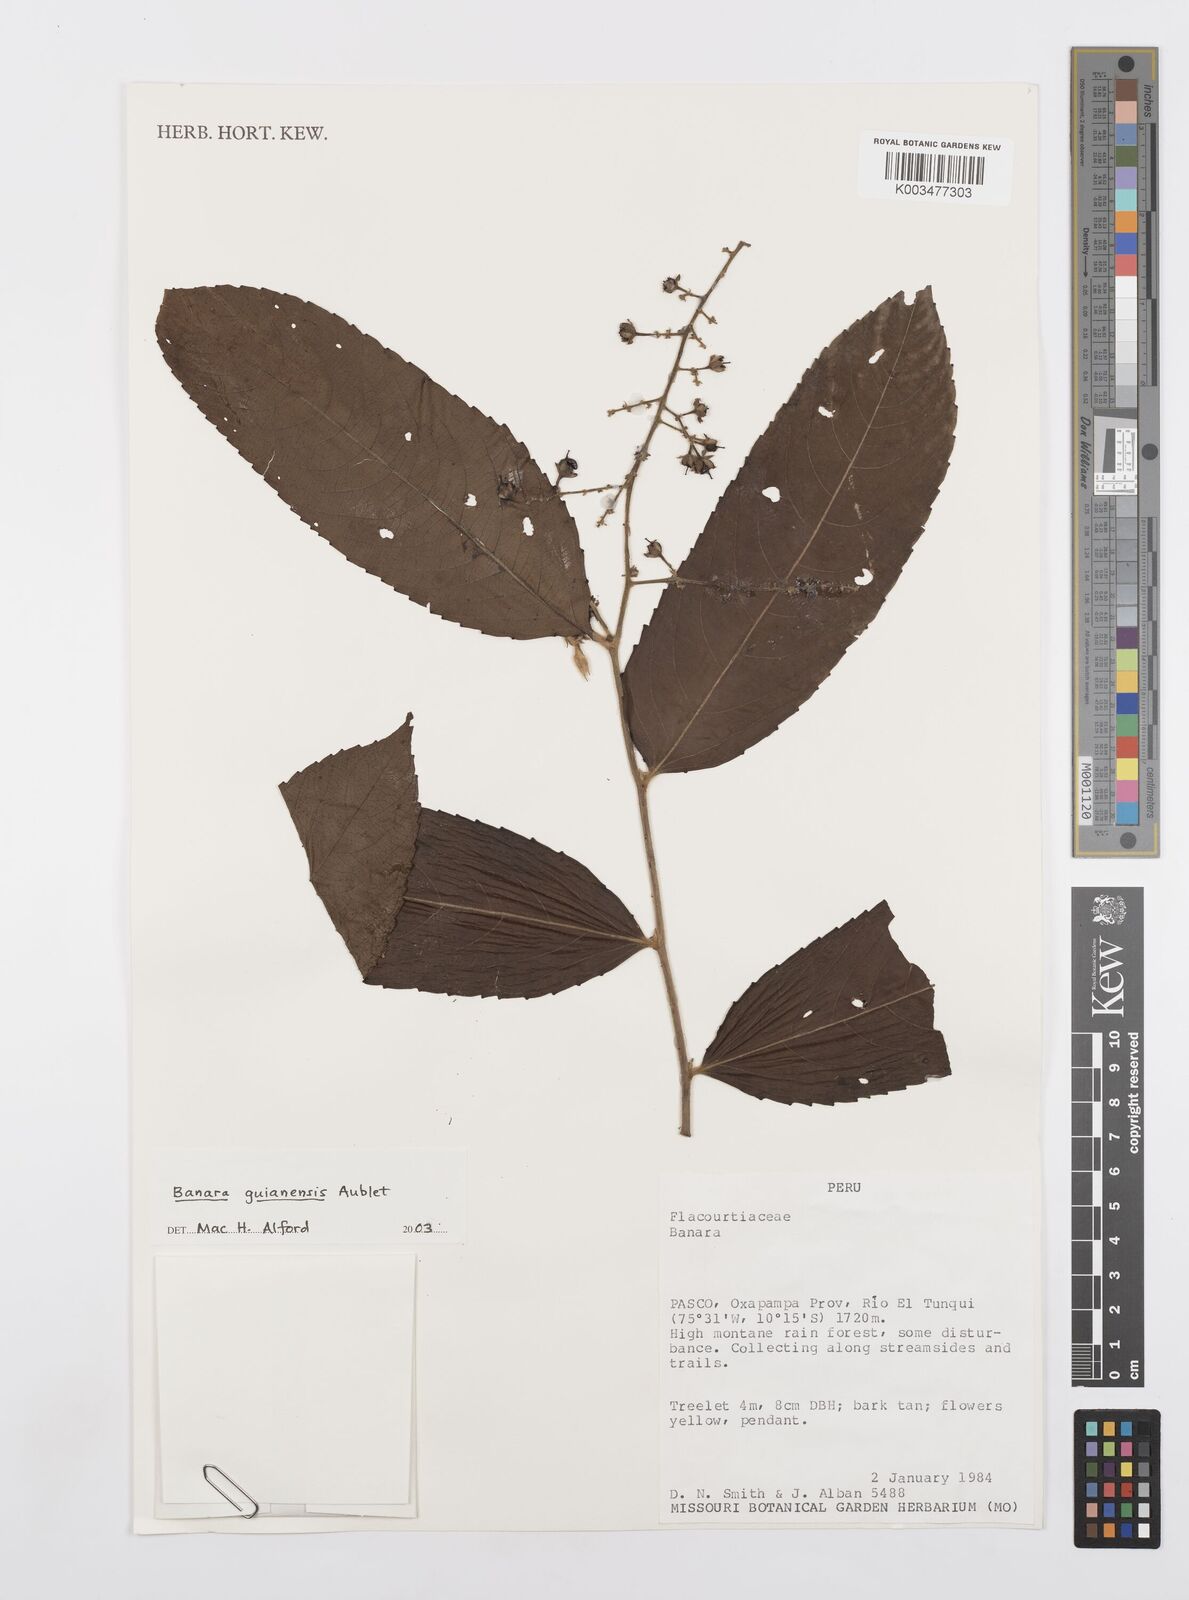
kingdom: Plantae
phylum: Tracheophyta
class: Magnoliopsida
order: Malpighiales
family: Salicaceae
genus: Banara
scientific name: Banara guianensis
